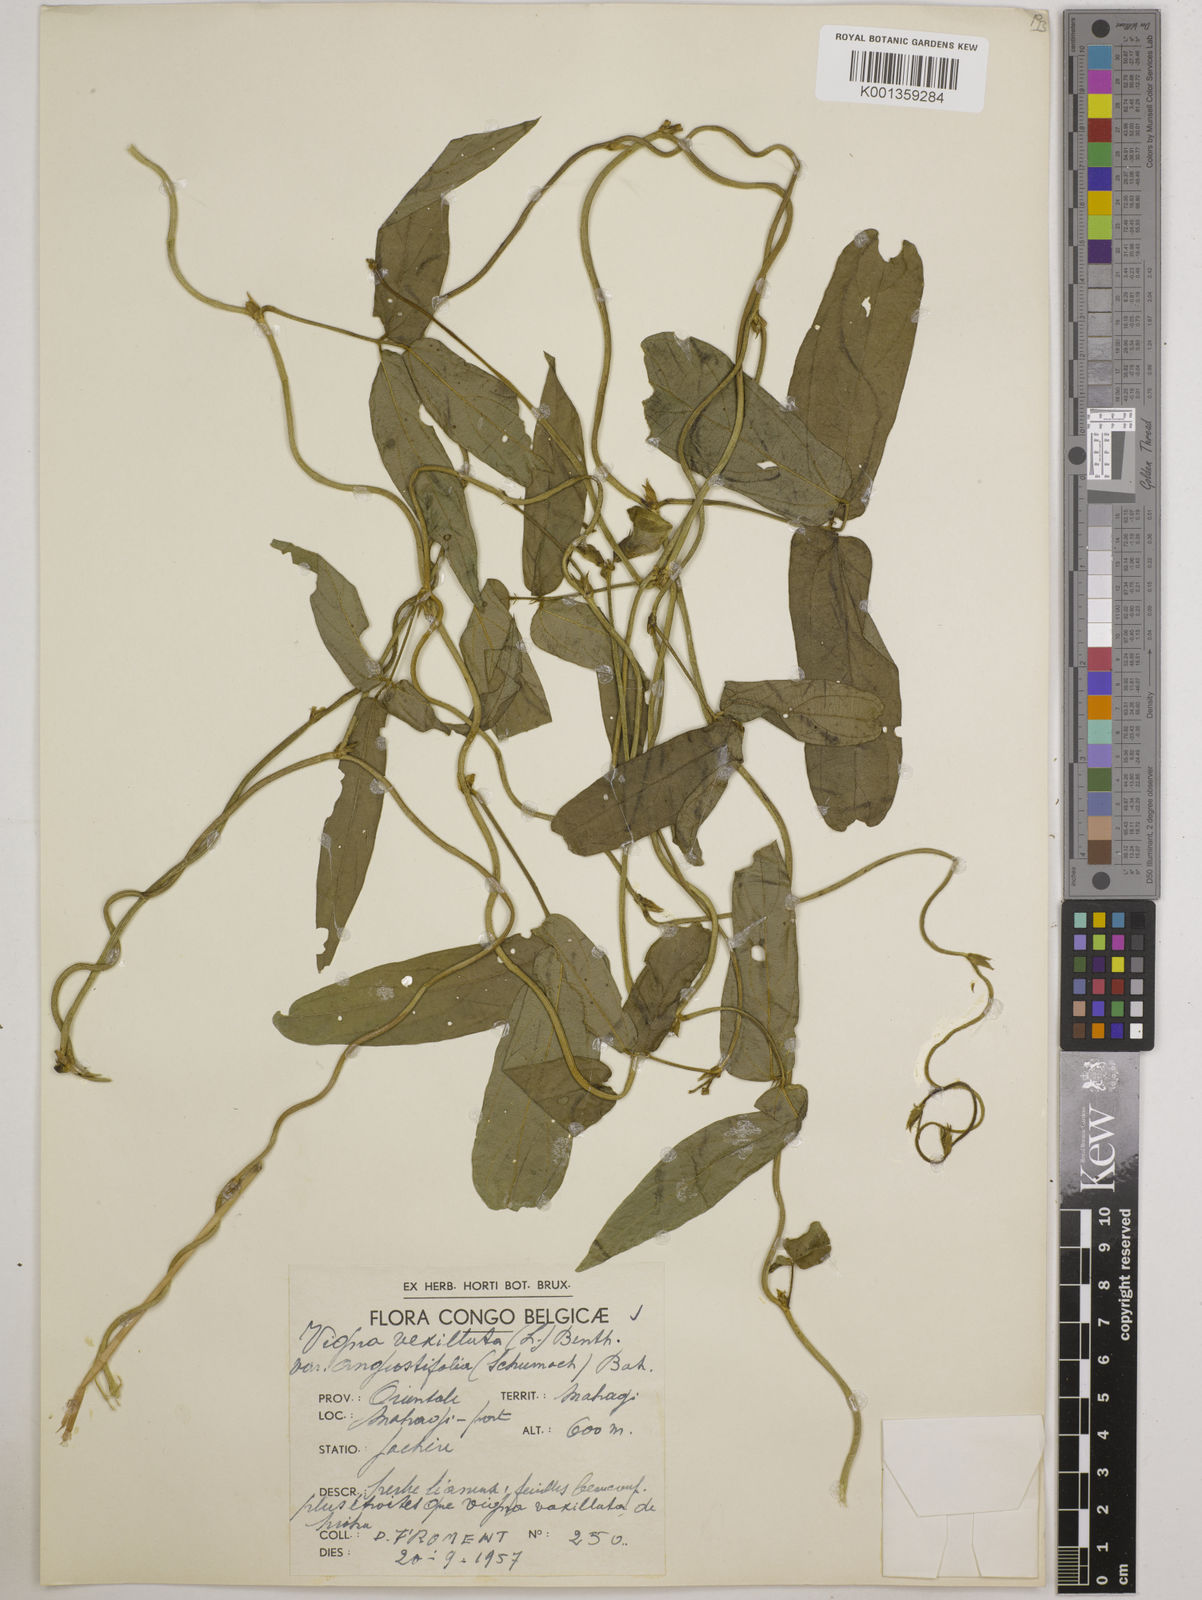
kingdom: Plantae
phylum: Tracheophyta
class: Magnoliopsida
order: Fabales
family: Fabaceae
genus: Vigna
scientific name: Vigna vexillata
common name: Zombi pea
